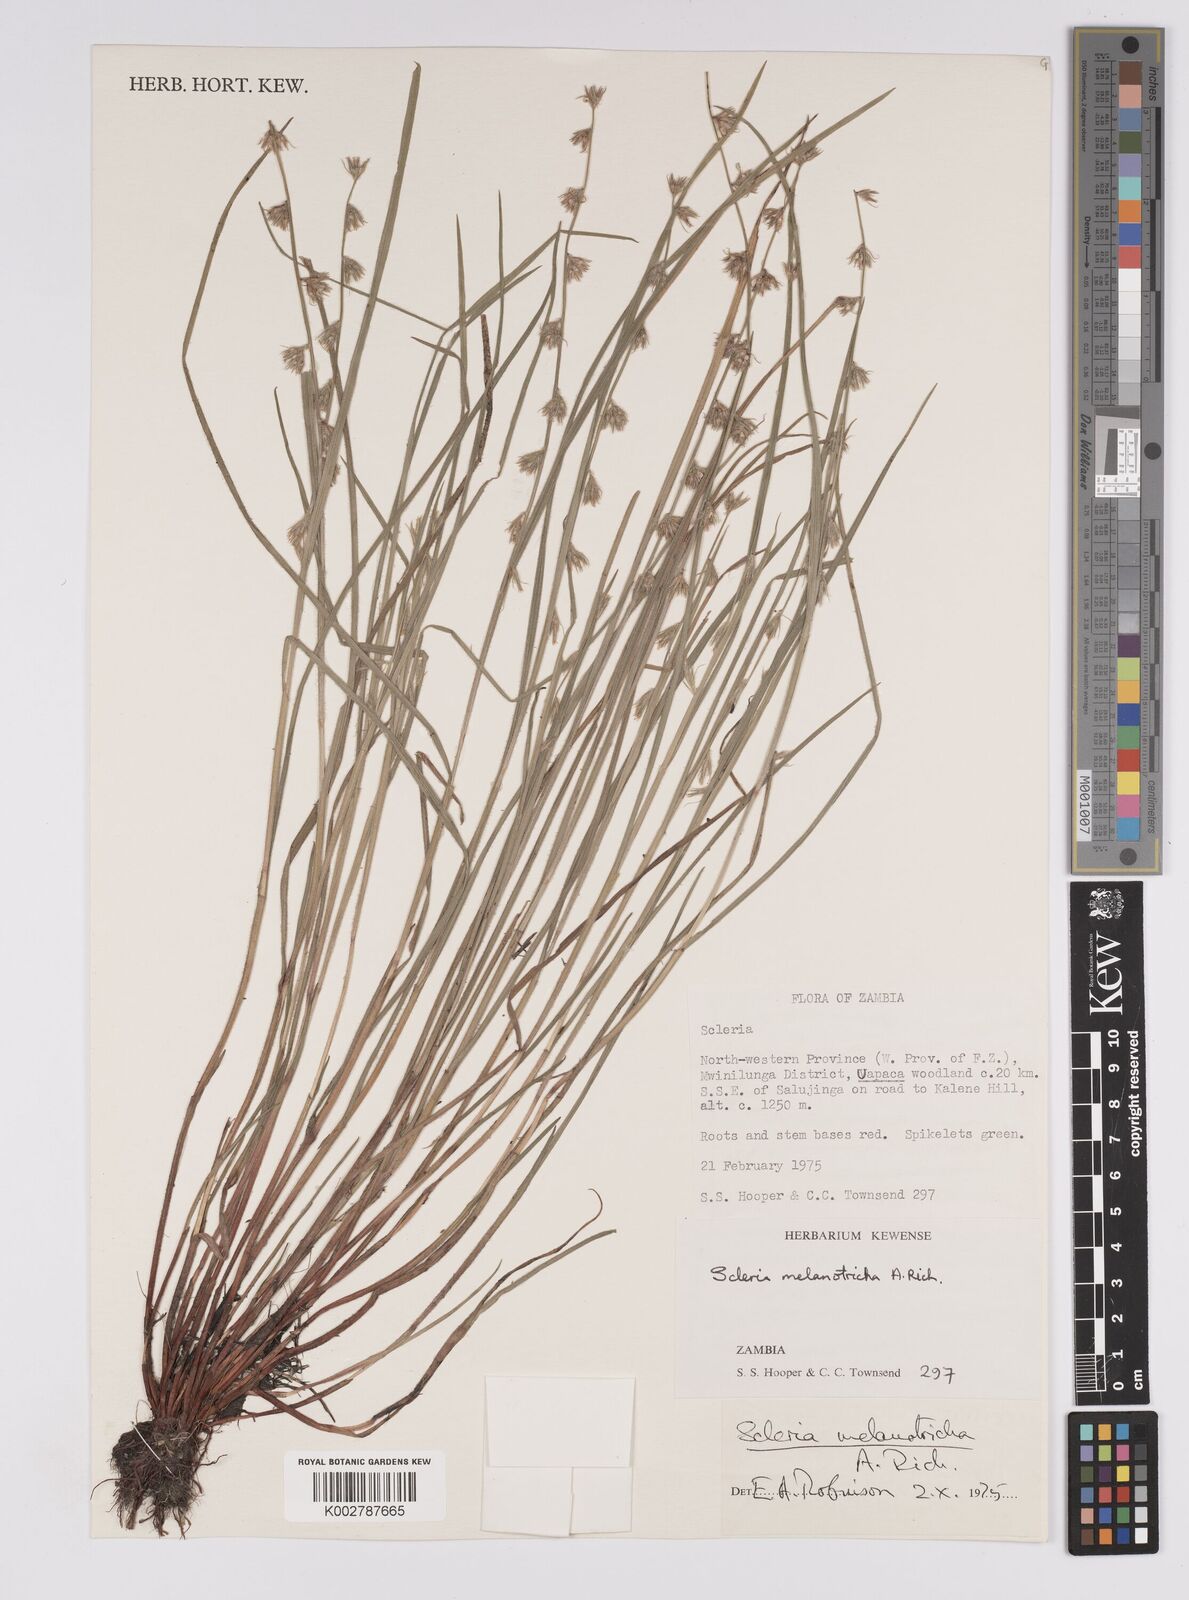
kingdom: Plantae
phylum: Tracheophyta
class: Liliopsida
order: Poales
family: Cyperaceae
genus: Scleria
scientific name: Scleria melanotricha
